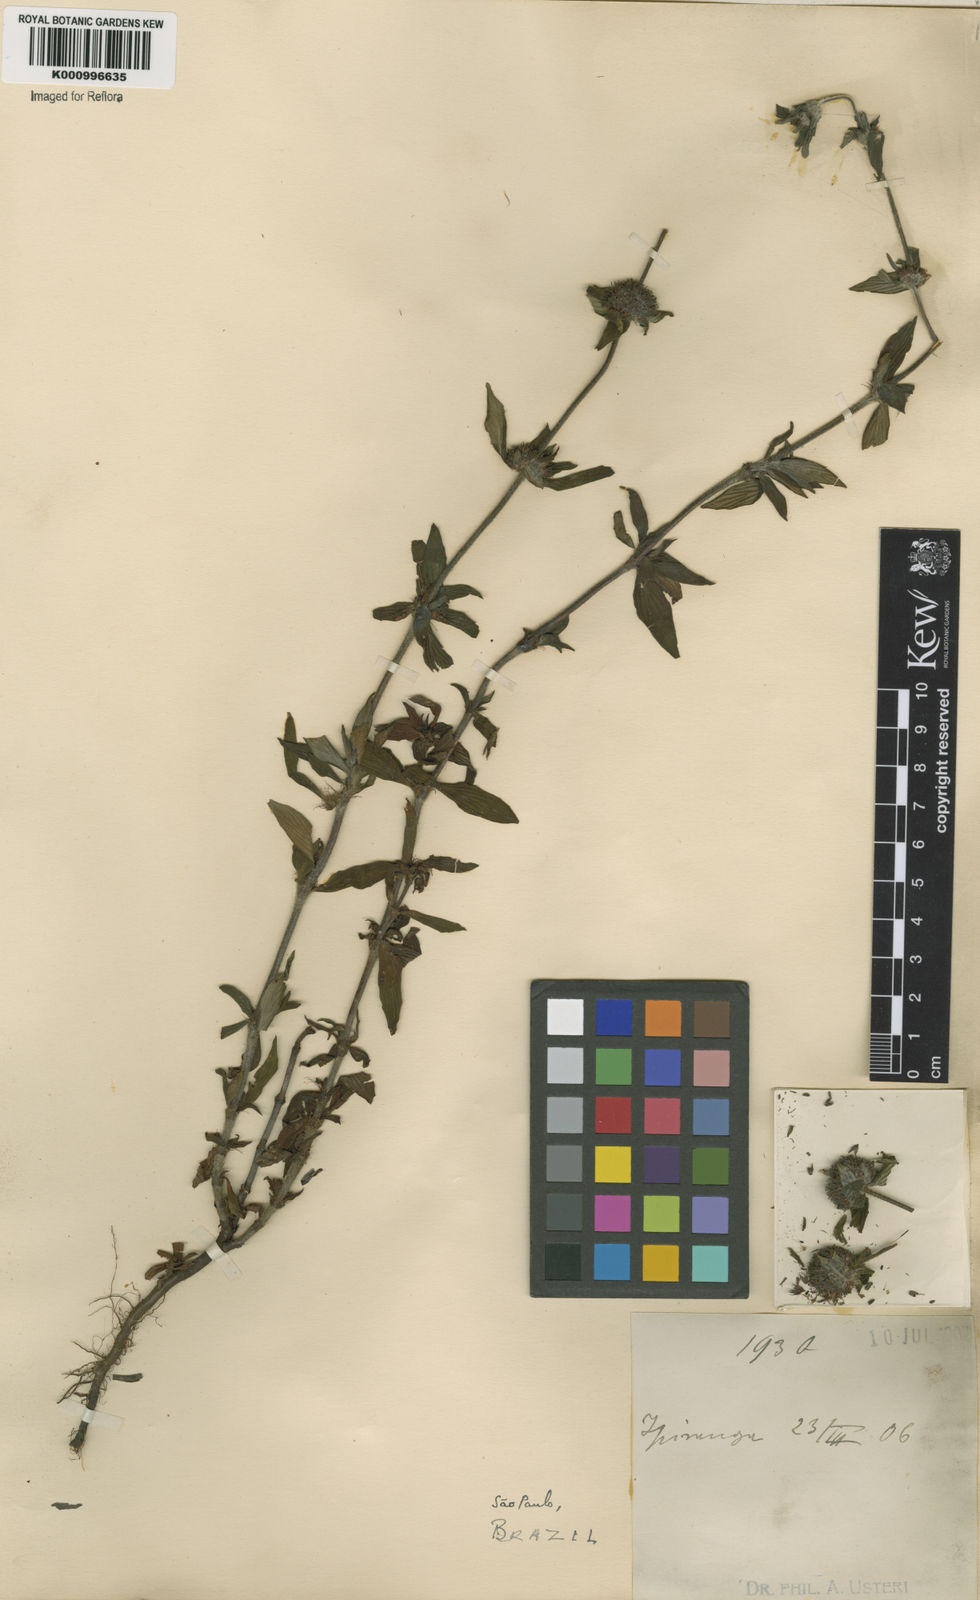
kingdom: Plantae
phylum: Tracheophyta
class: Magnoliopsida
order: Gentianales
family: Rubiaceae
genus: Spermacoce
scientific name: Spermacoce
